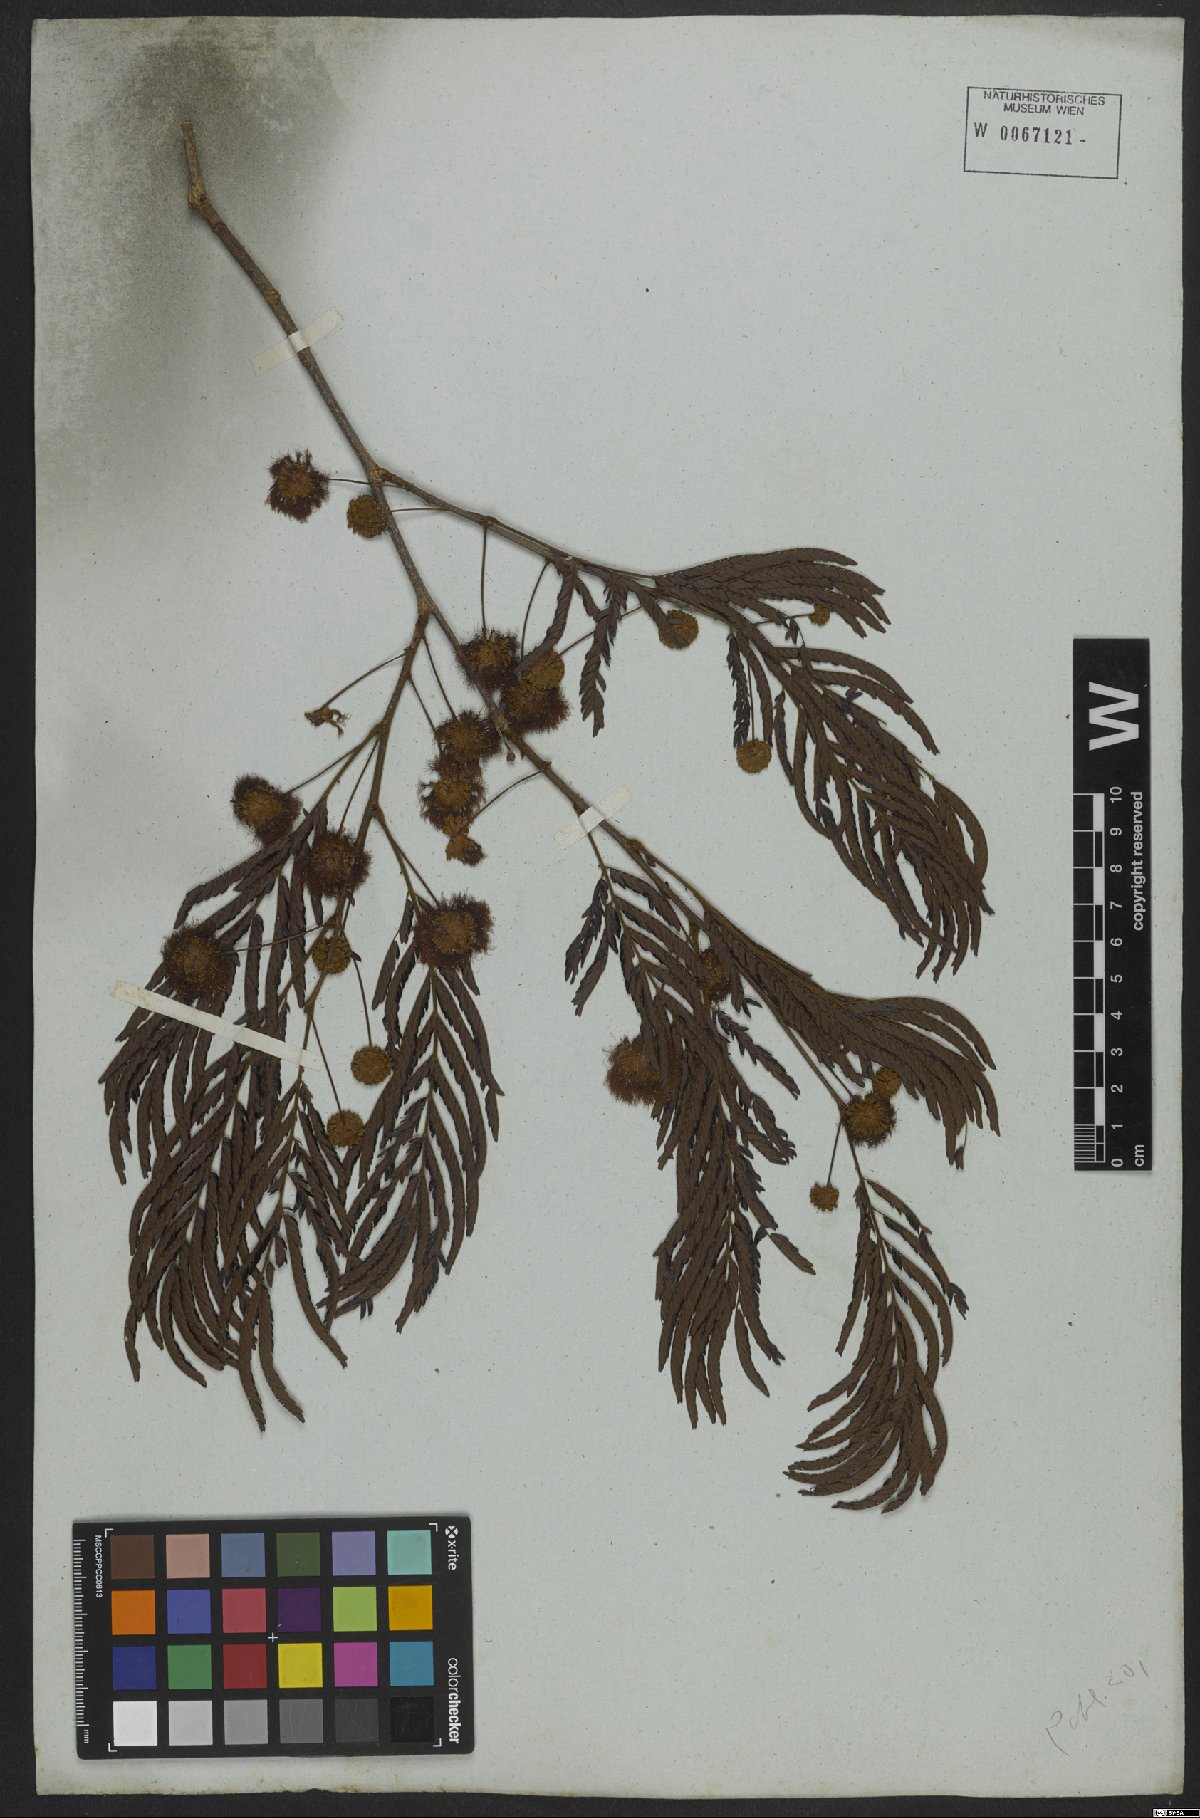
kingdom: Plantae
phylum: Tracheophyta
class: Magnoliopsida
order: Fabales
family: Fabaceae
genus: Leucochloron
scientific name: Leucochloron incuriale
